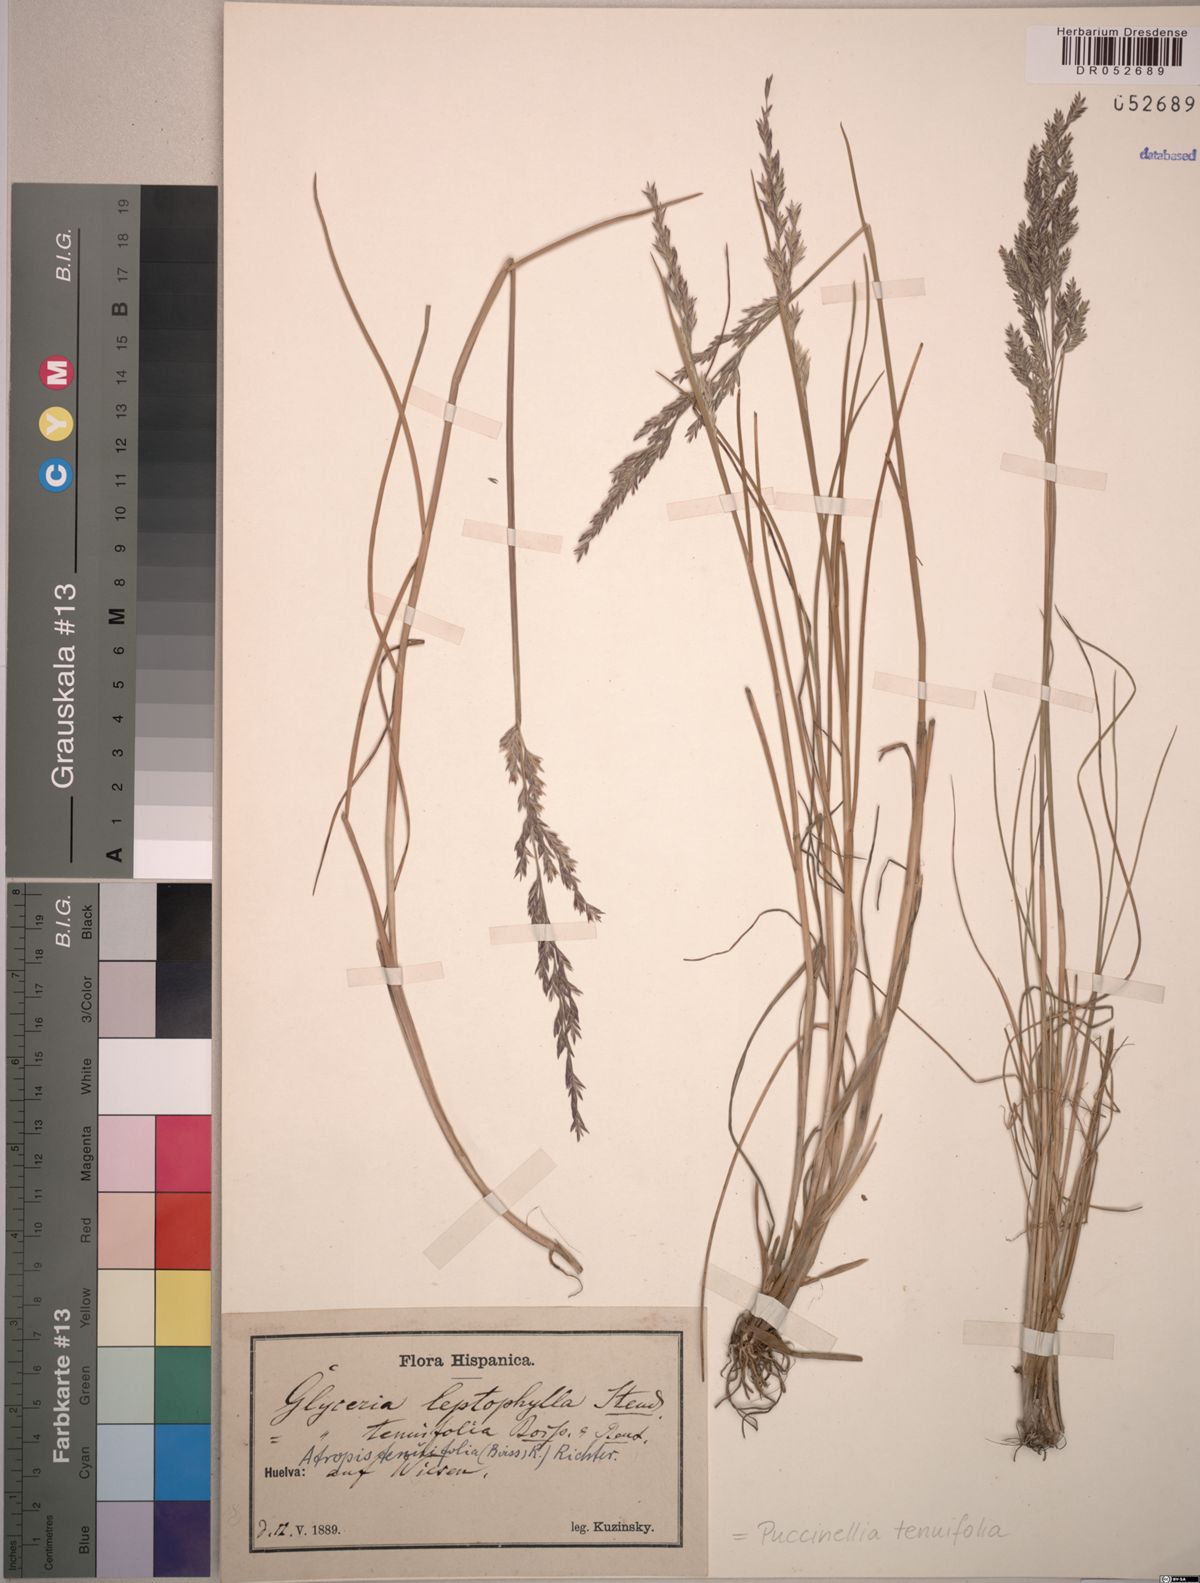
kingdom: Plantae
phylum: Tracheophyta
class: Liliopsida
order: Poales
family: Poaceae
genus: Puccinellia
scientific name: Puccinellia tenuifolia
